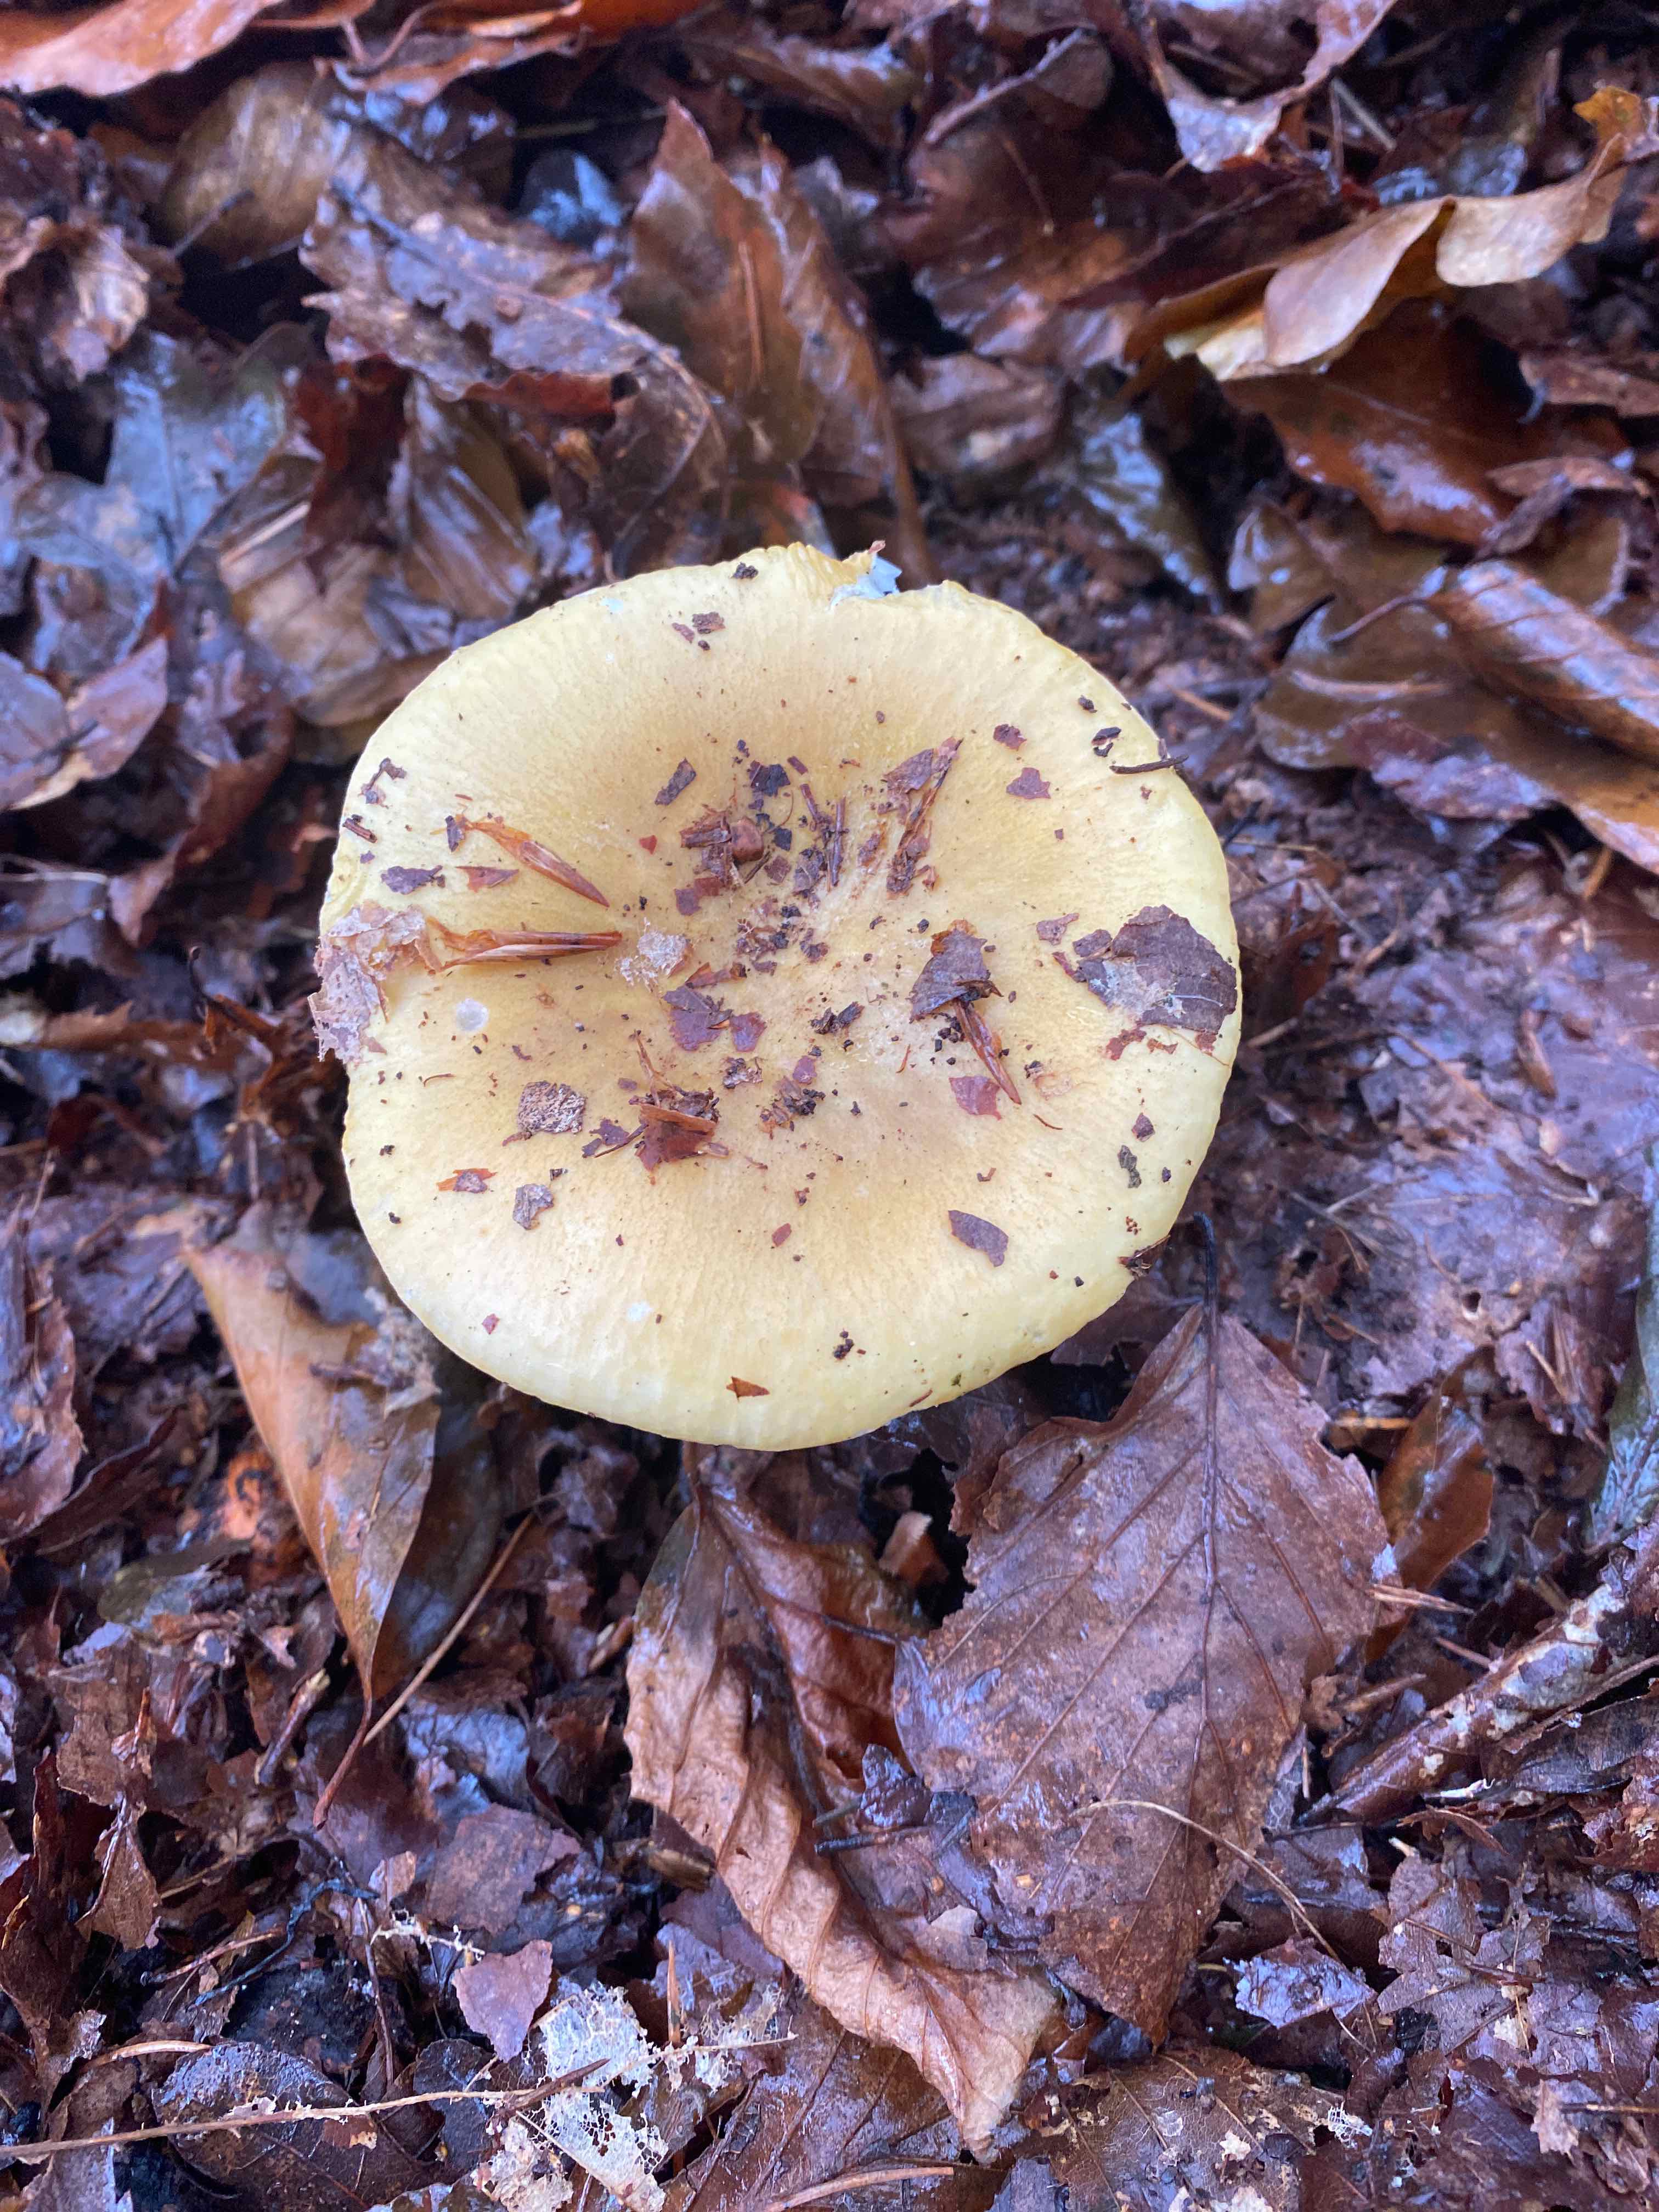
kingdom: Fungi
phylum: Basidiomycota
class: Agaricomycetes
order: Russulales
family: Russulaceae
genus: Russula
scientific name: Russula ochroleuca
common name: okkergul skørhat
